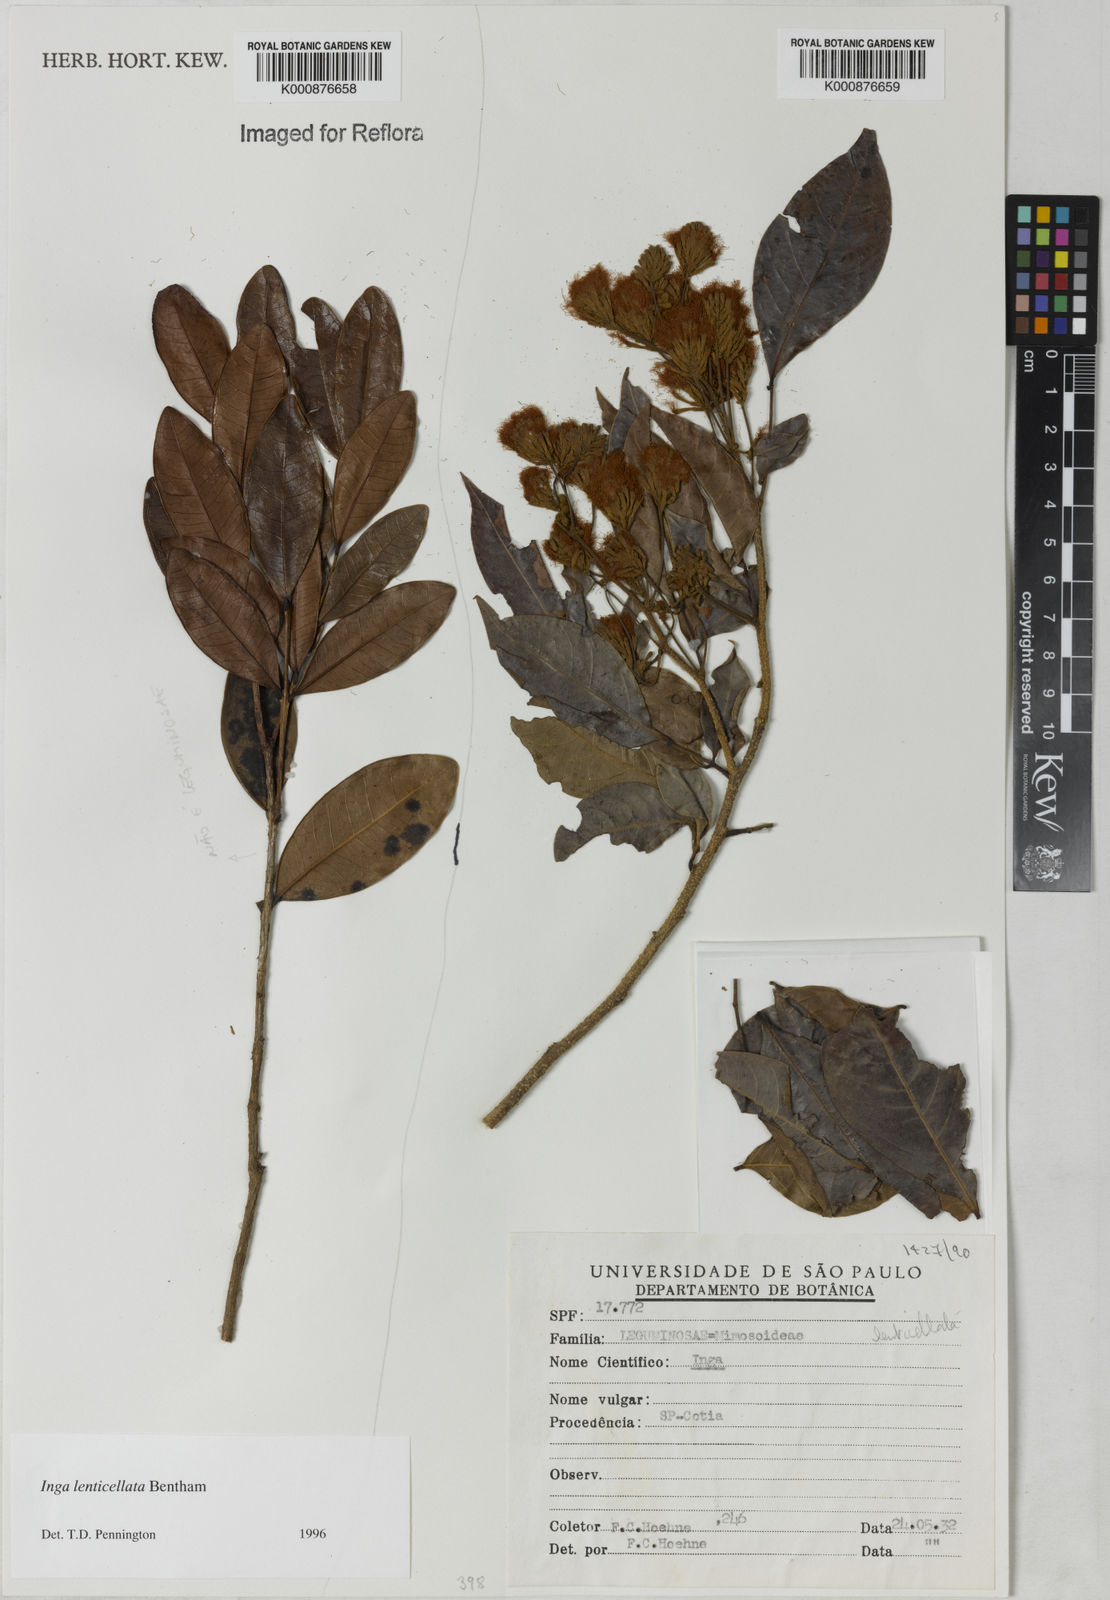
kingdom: Plantae
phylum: Tracheophyta
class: Magnoliopsida
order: Fabales
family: Fabaceae
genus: Inga
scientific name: Inga lenticellata
